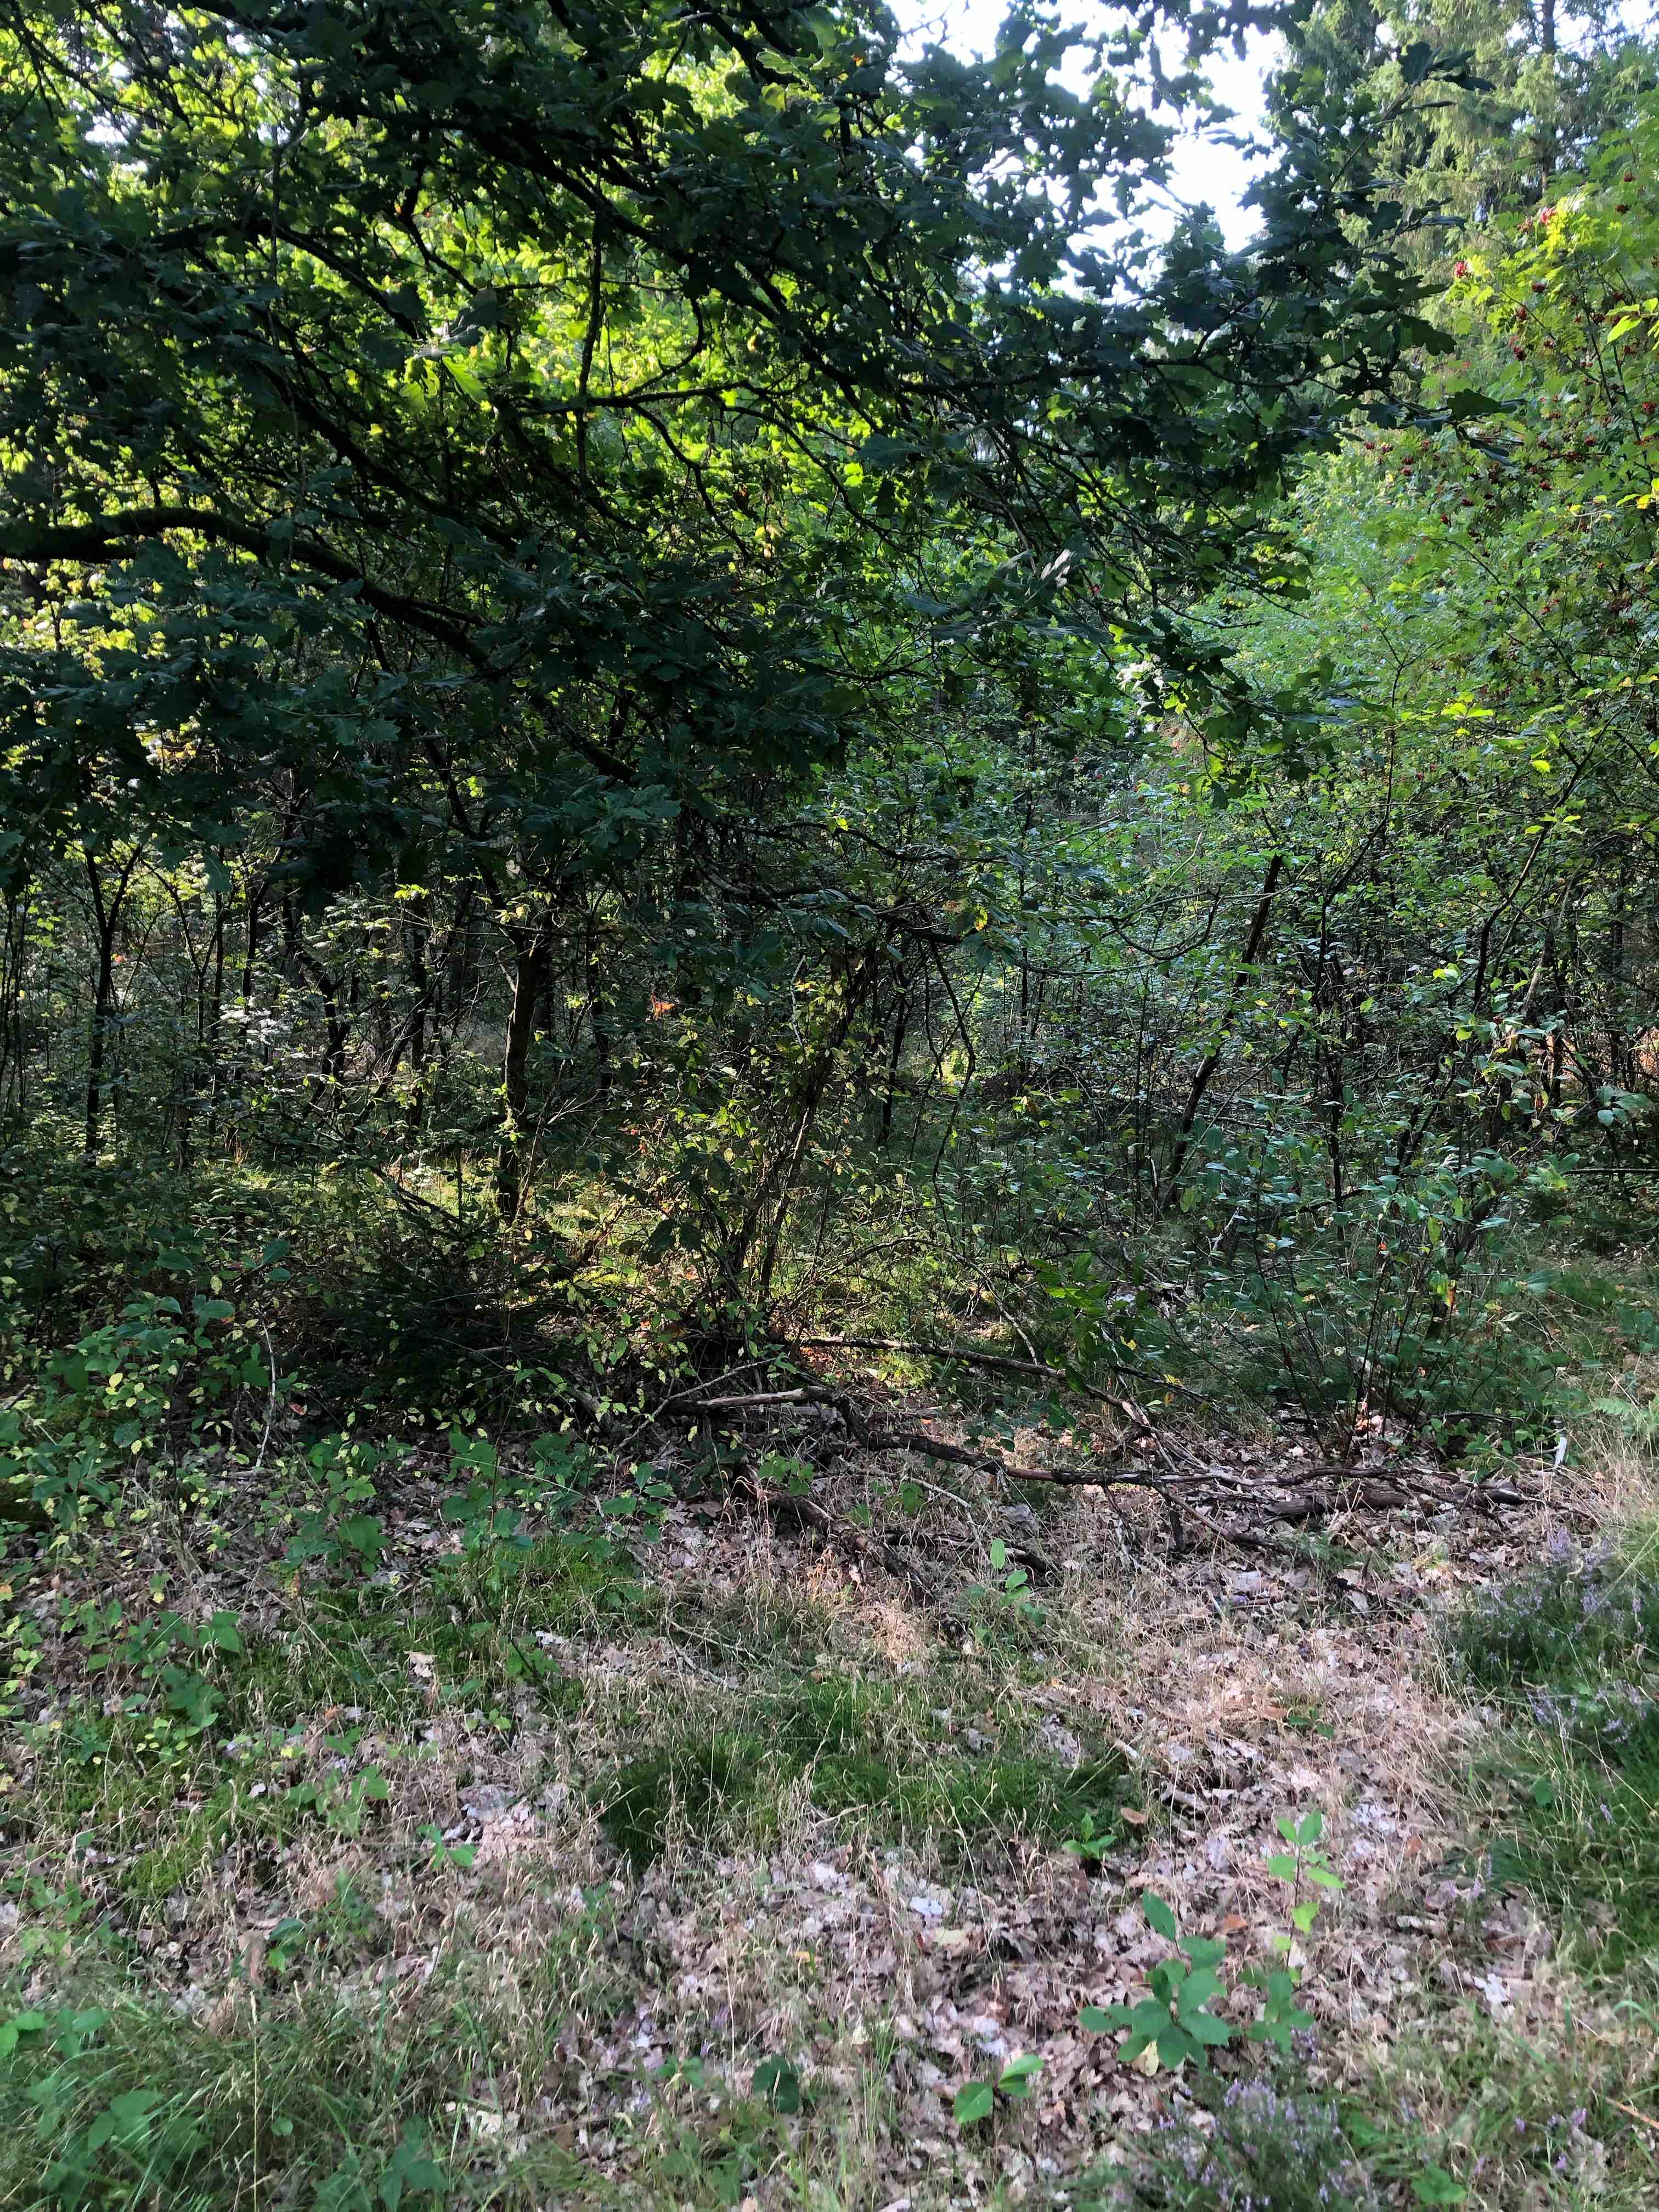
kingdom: Fungi
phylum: Basidiomycota
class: Agaricomycetes
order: Agaricales
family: Hydnangiaceae
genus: Laccaria
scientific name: Laccaria amethystina
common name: violet ametysthat
